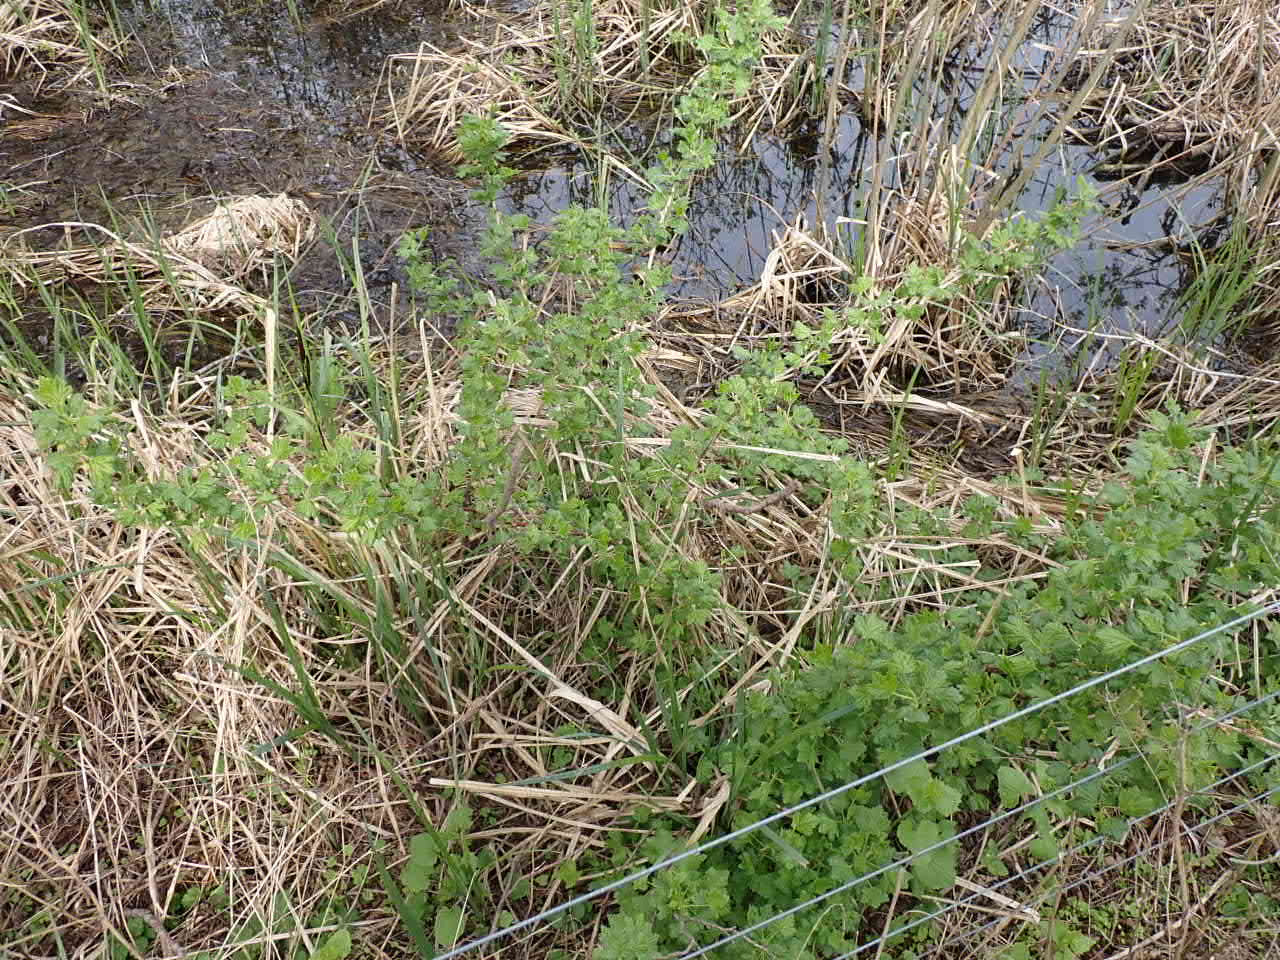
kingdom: Plantae
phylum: Tracheophyta
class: Magnoliopsida
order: Saxifragales
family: Grossulariaceae
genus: Ribes
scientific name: Ribes uva-crispa
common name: Stikkelsbær
